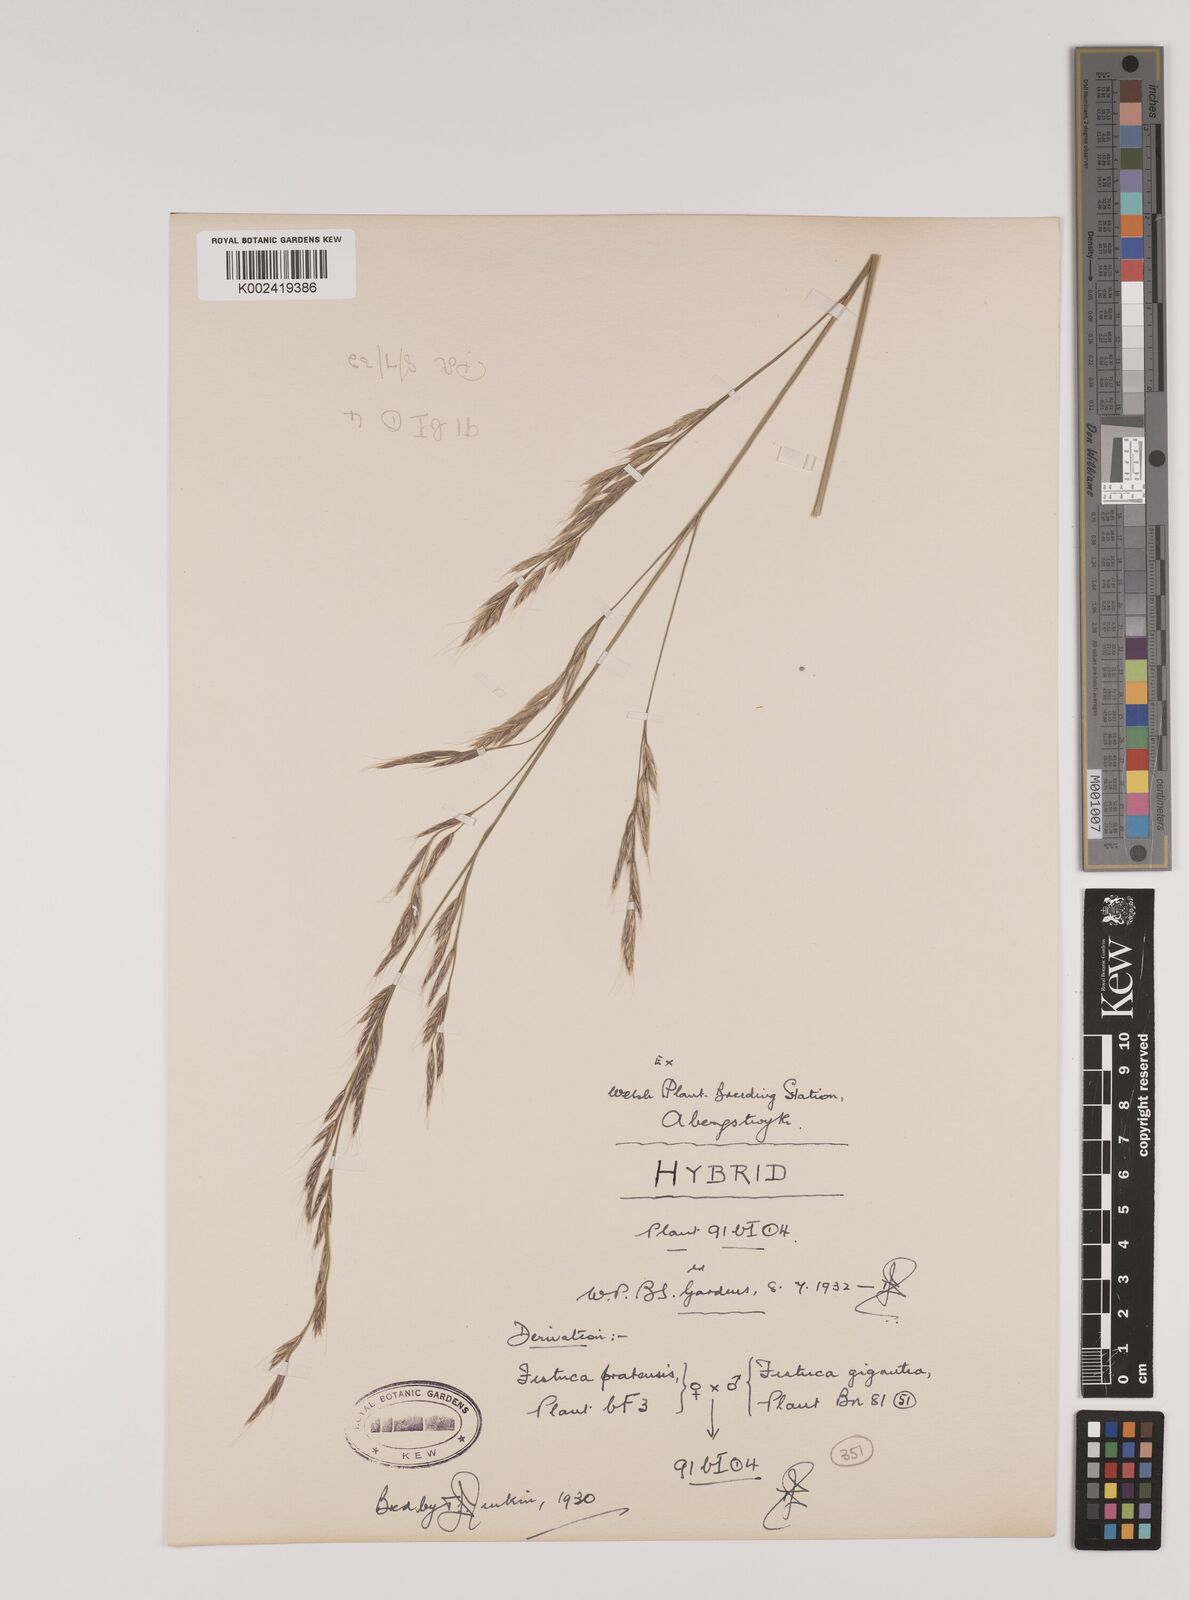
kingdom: Plantae
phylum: Tracheophyta
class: Liliopsida
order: Poales
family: Poaceae
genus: Lolium
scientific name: Lolium giganteum
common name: Giant fescue
